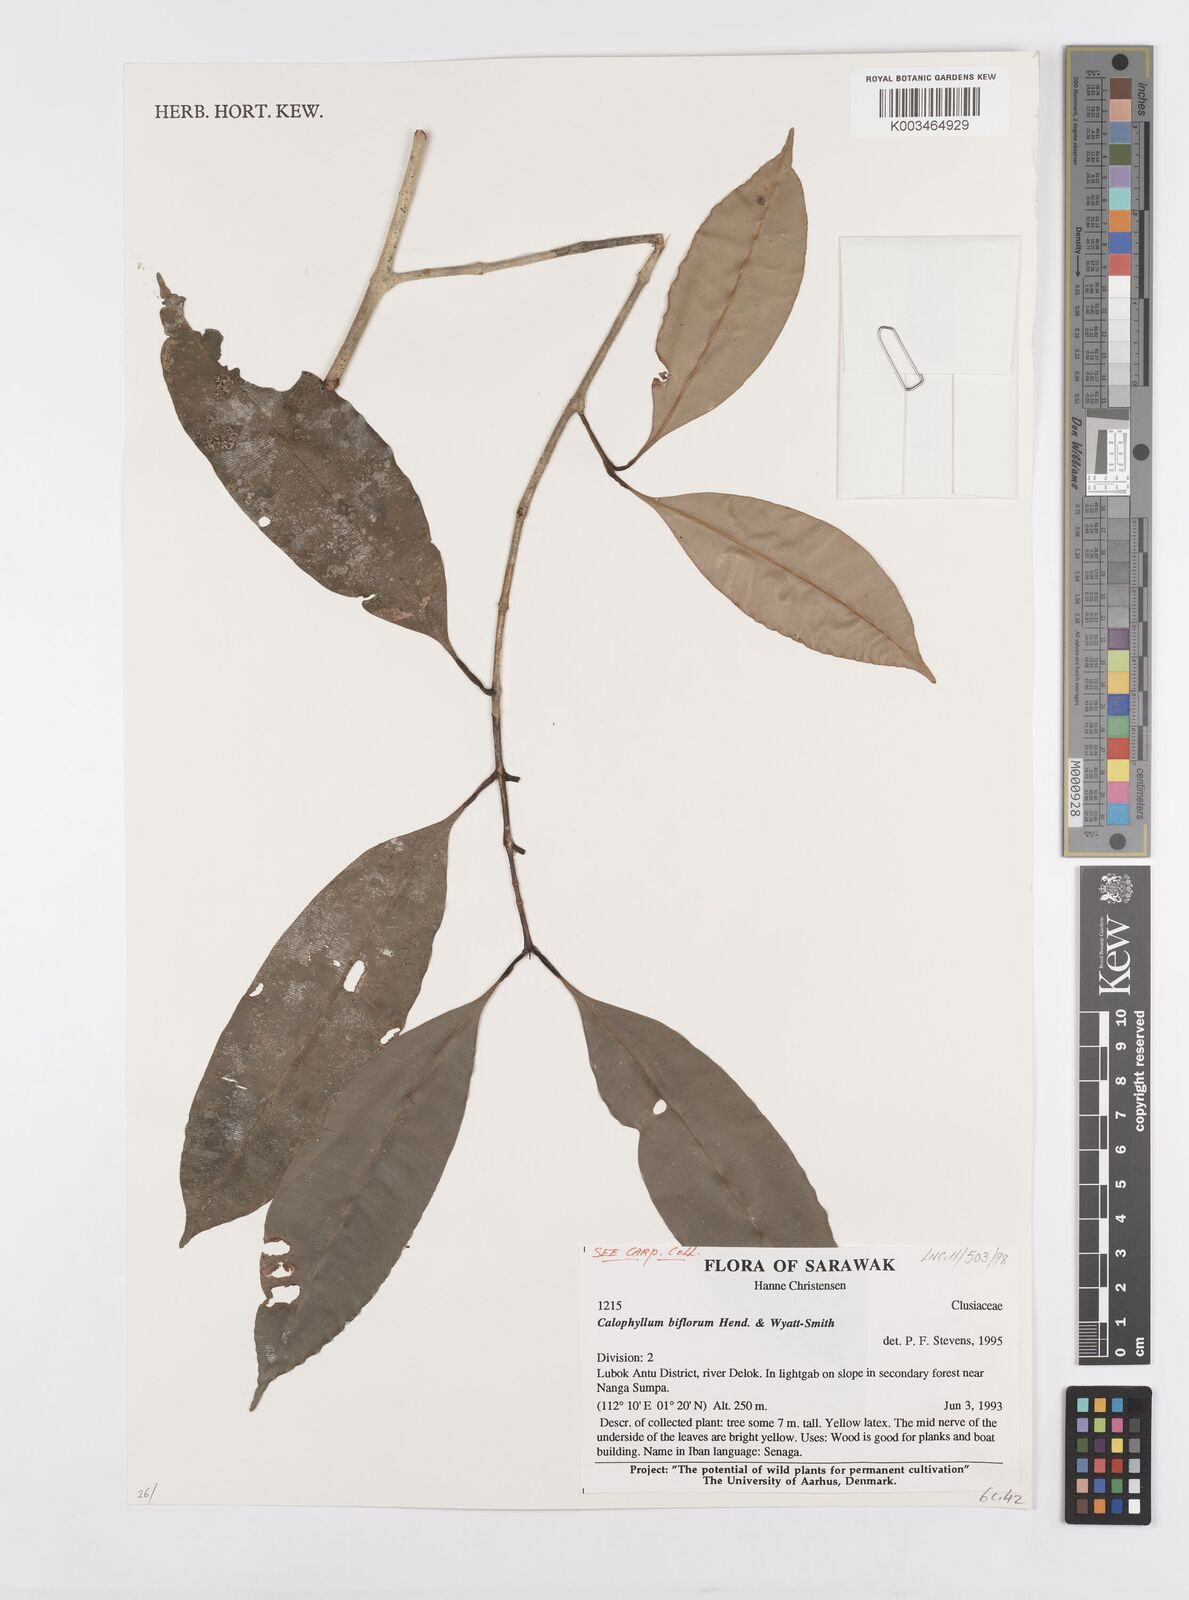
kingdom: Plantae
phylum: Tracheophyta
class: Magnoliopsida
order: Malpighiales
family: Calophyllaceae
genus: Calophyllum
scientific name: Calophyllum biflorum
